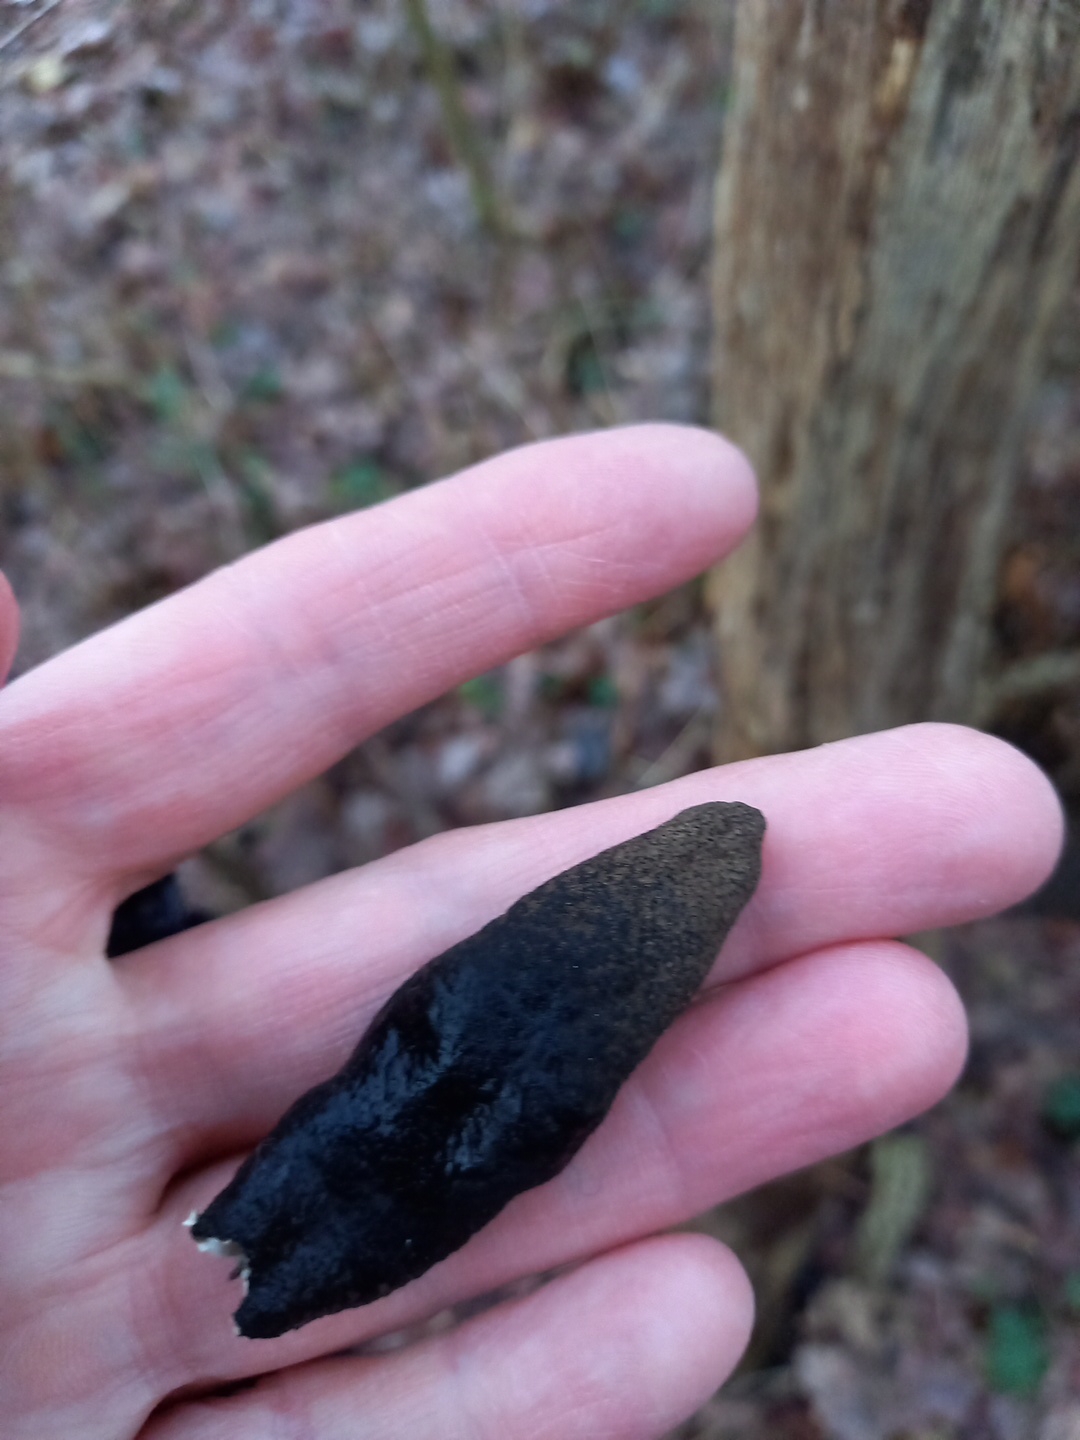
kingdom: Fungi
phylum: Ascomycota
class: Sordariomycetes
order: Xylariales
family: Xylariaceae
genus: Xylaria
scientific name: Xylaria polymorpha
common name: kølle-stødsvamp
